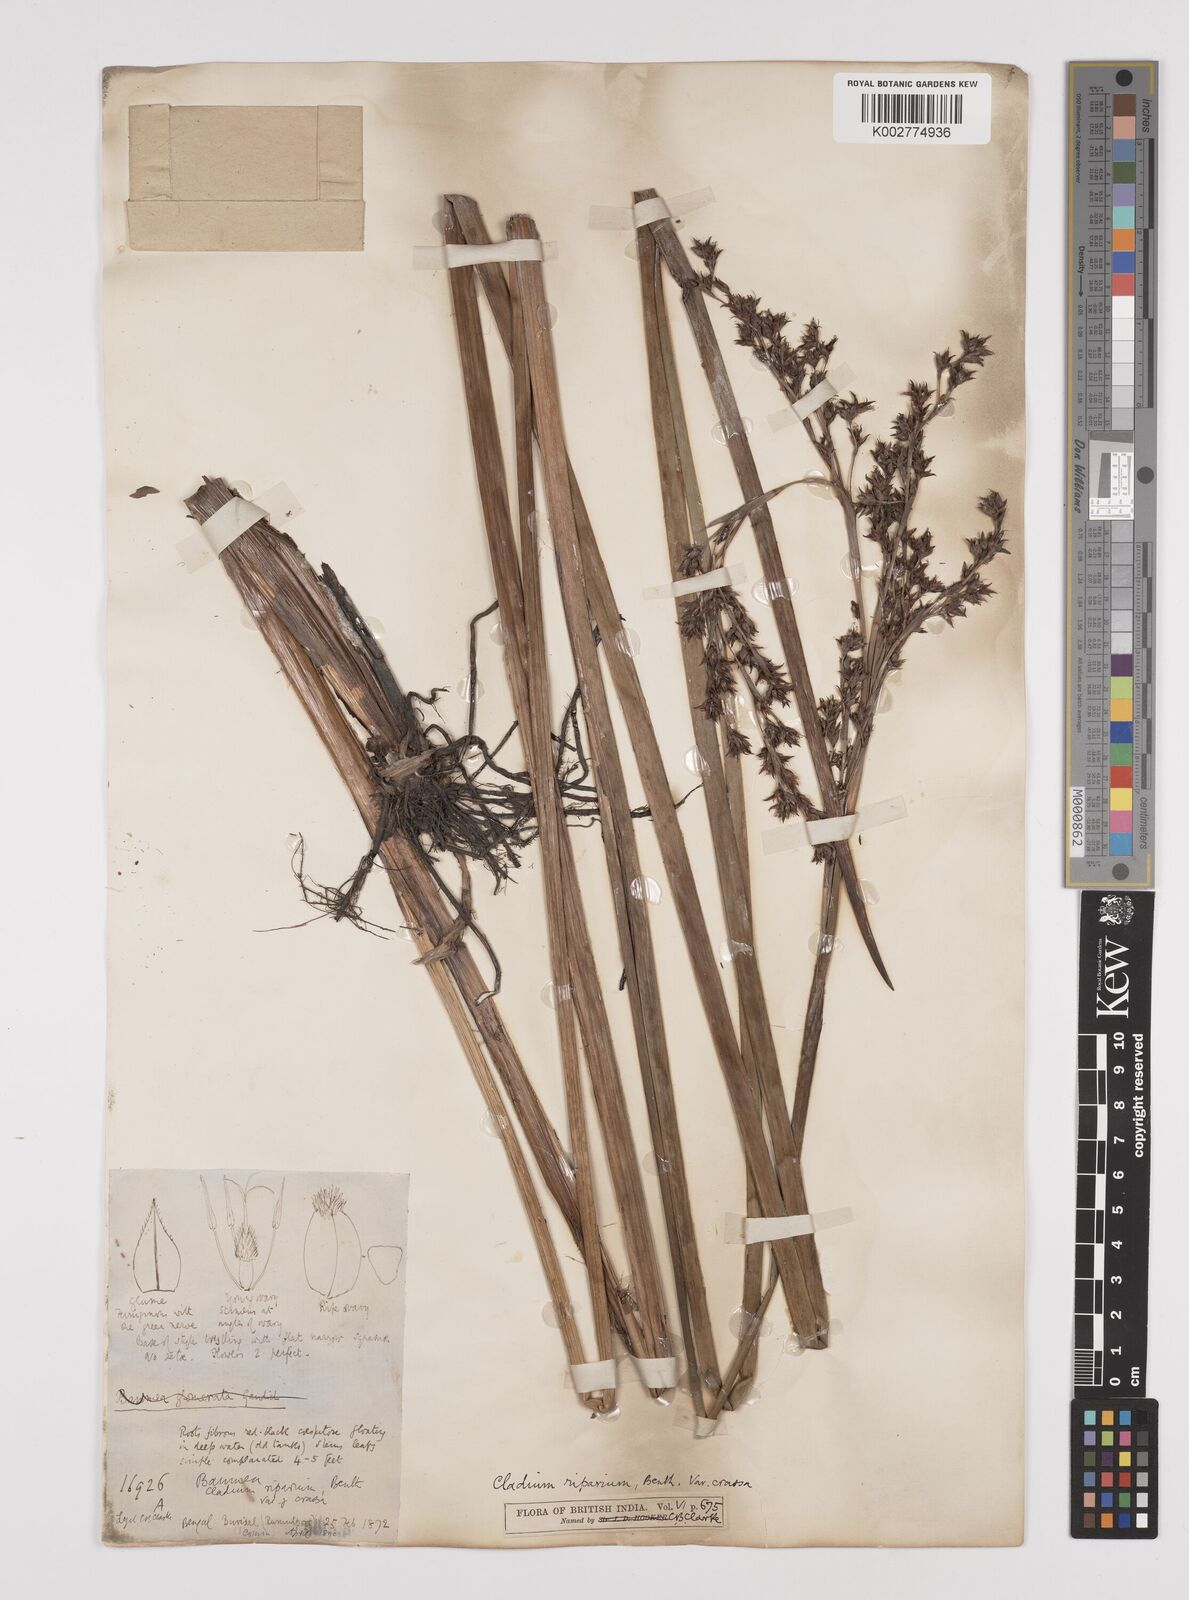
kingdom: Plantae
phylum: Tracheophyta
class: Liliopsida
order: Poales
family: Cyperaceae
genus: Machaerina
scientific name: Machaerina rubiginosa
